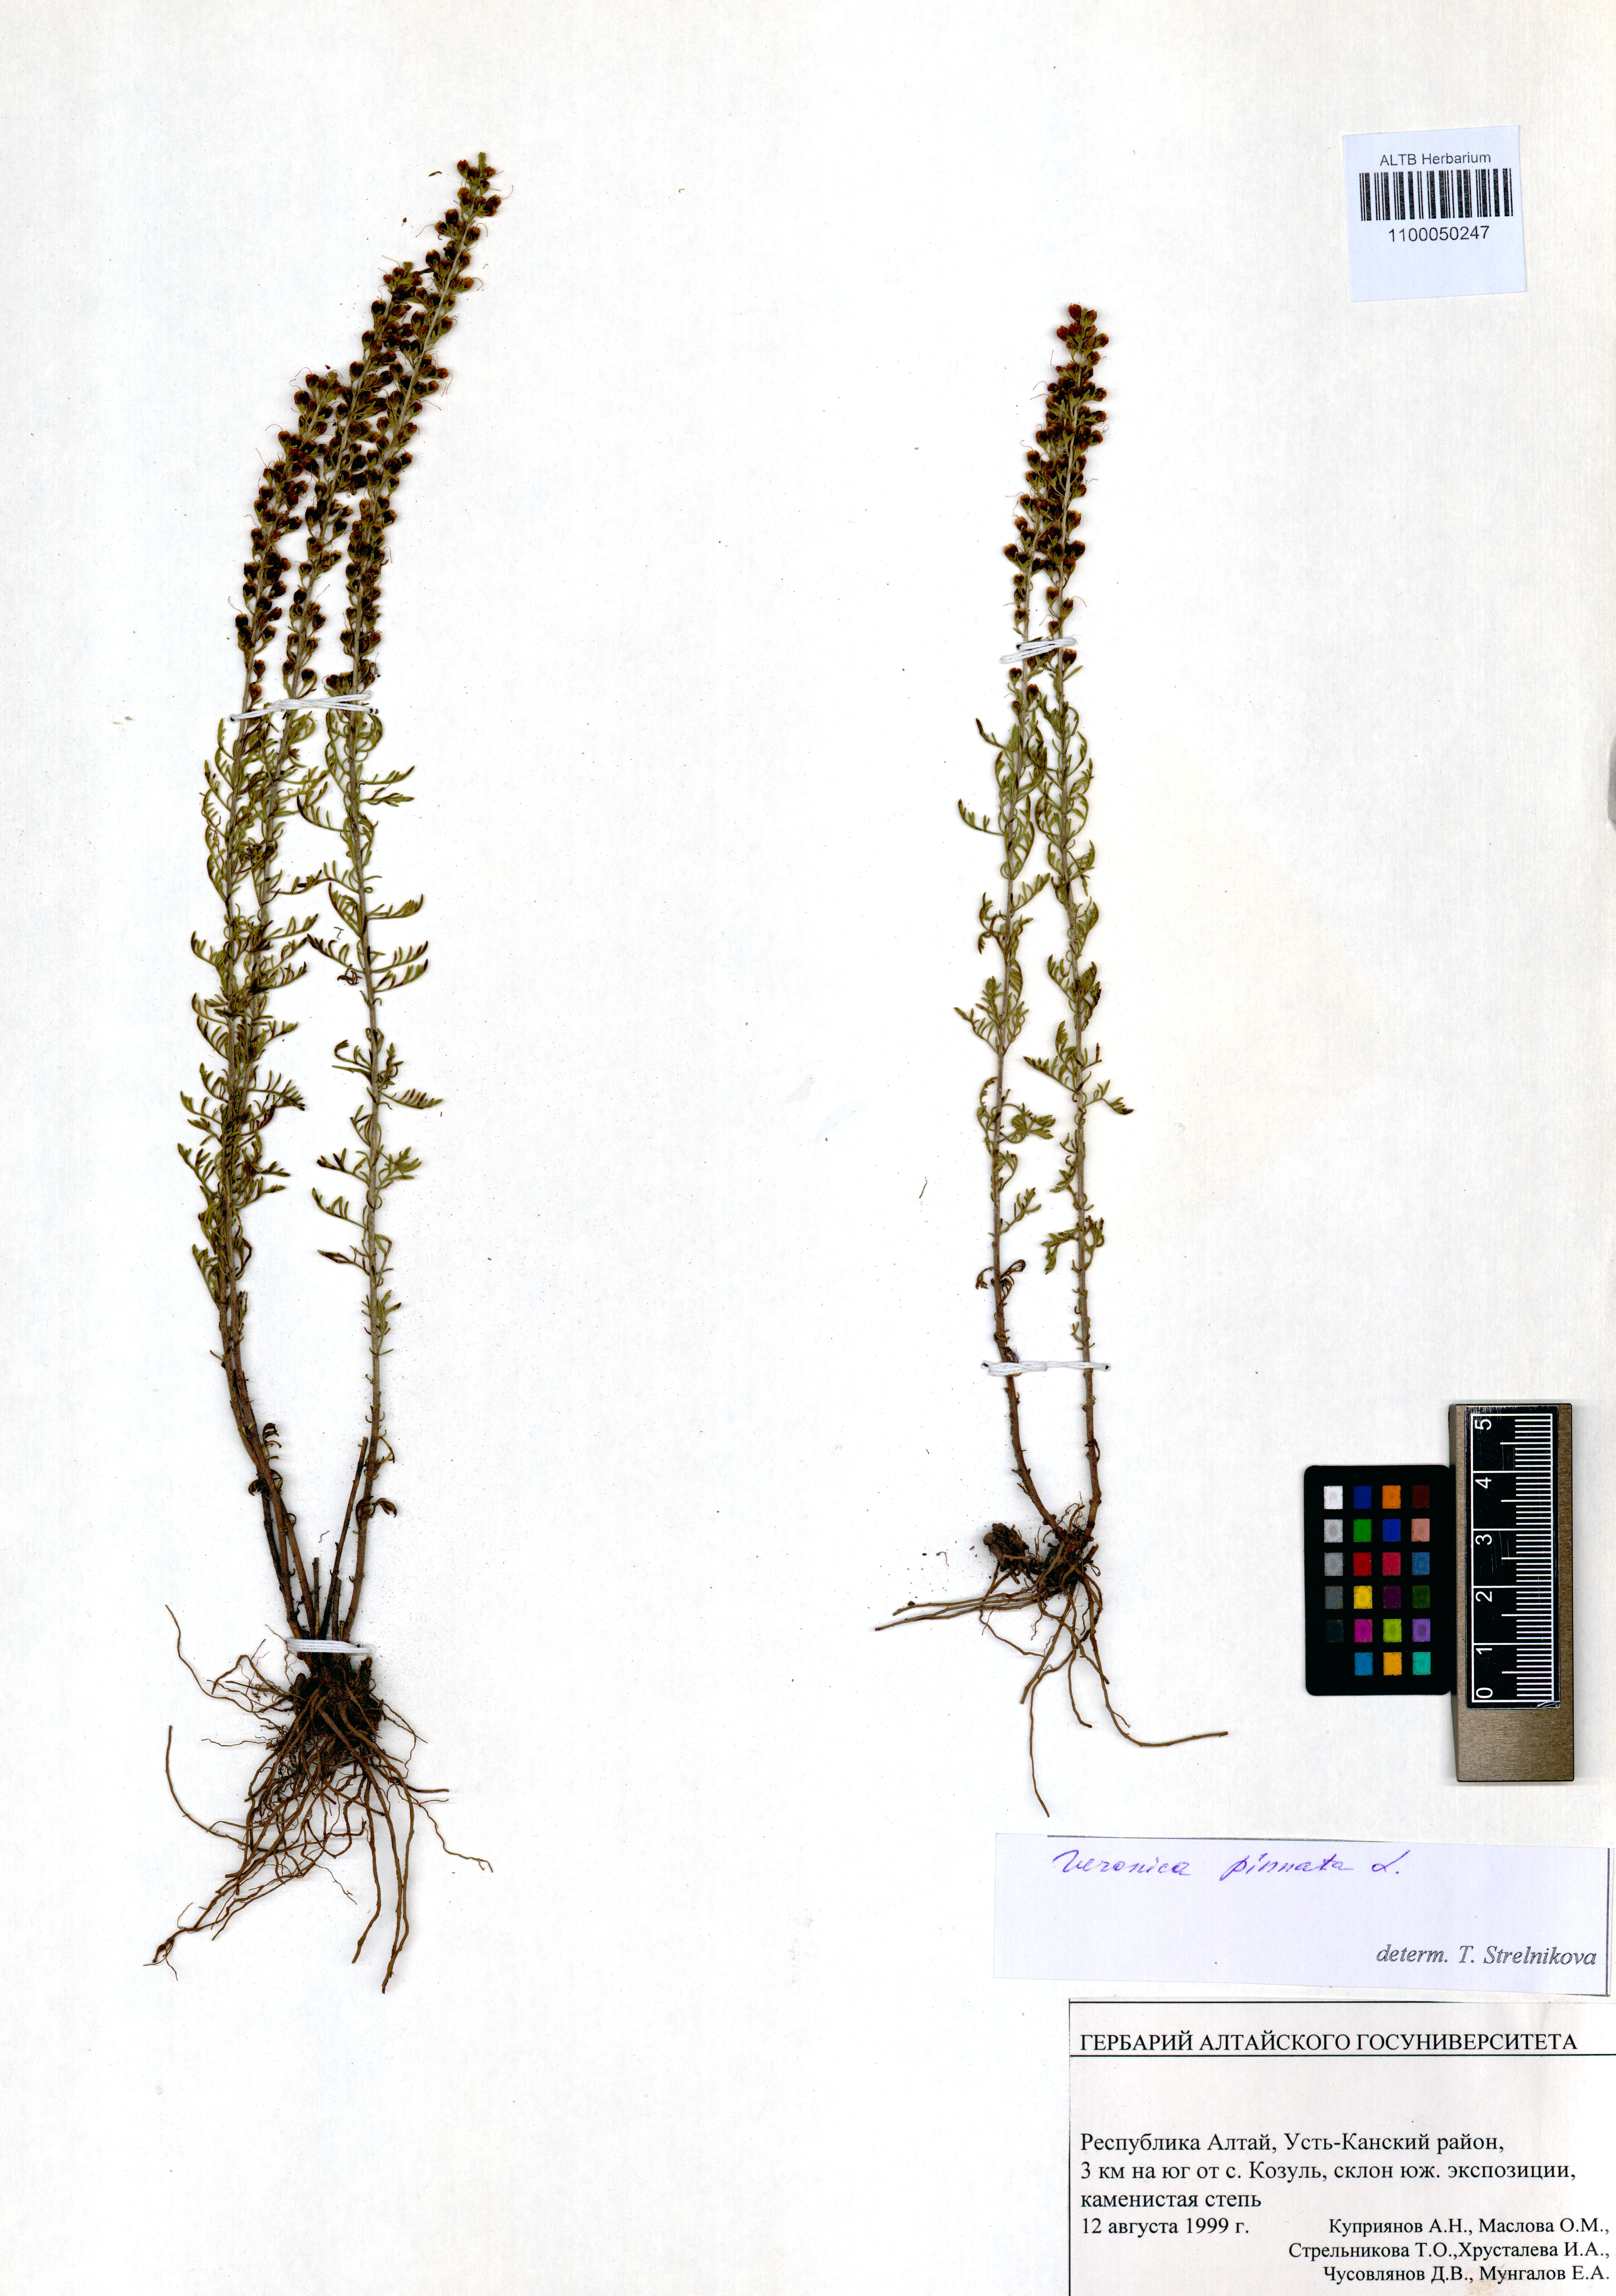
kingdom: Plantae
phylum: Tracheophyta
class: Magnoliopsida
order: Lamiales
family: Plantaginaceae
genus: Veronica
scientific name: Veronica pinnata
